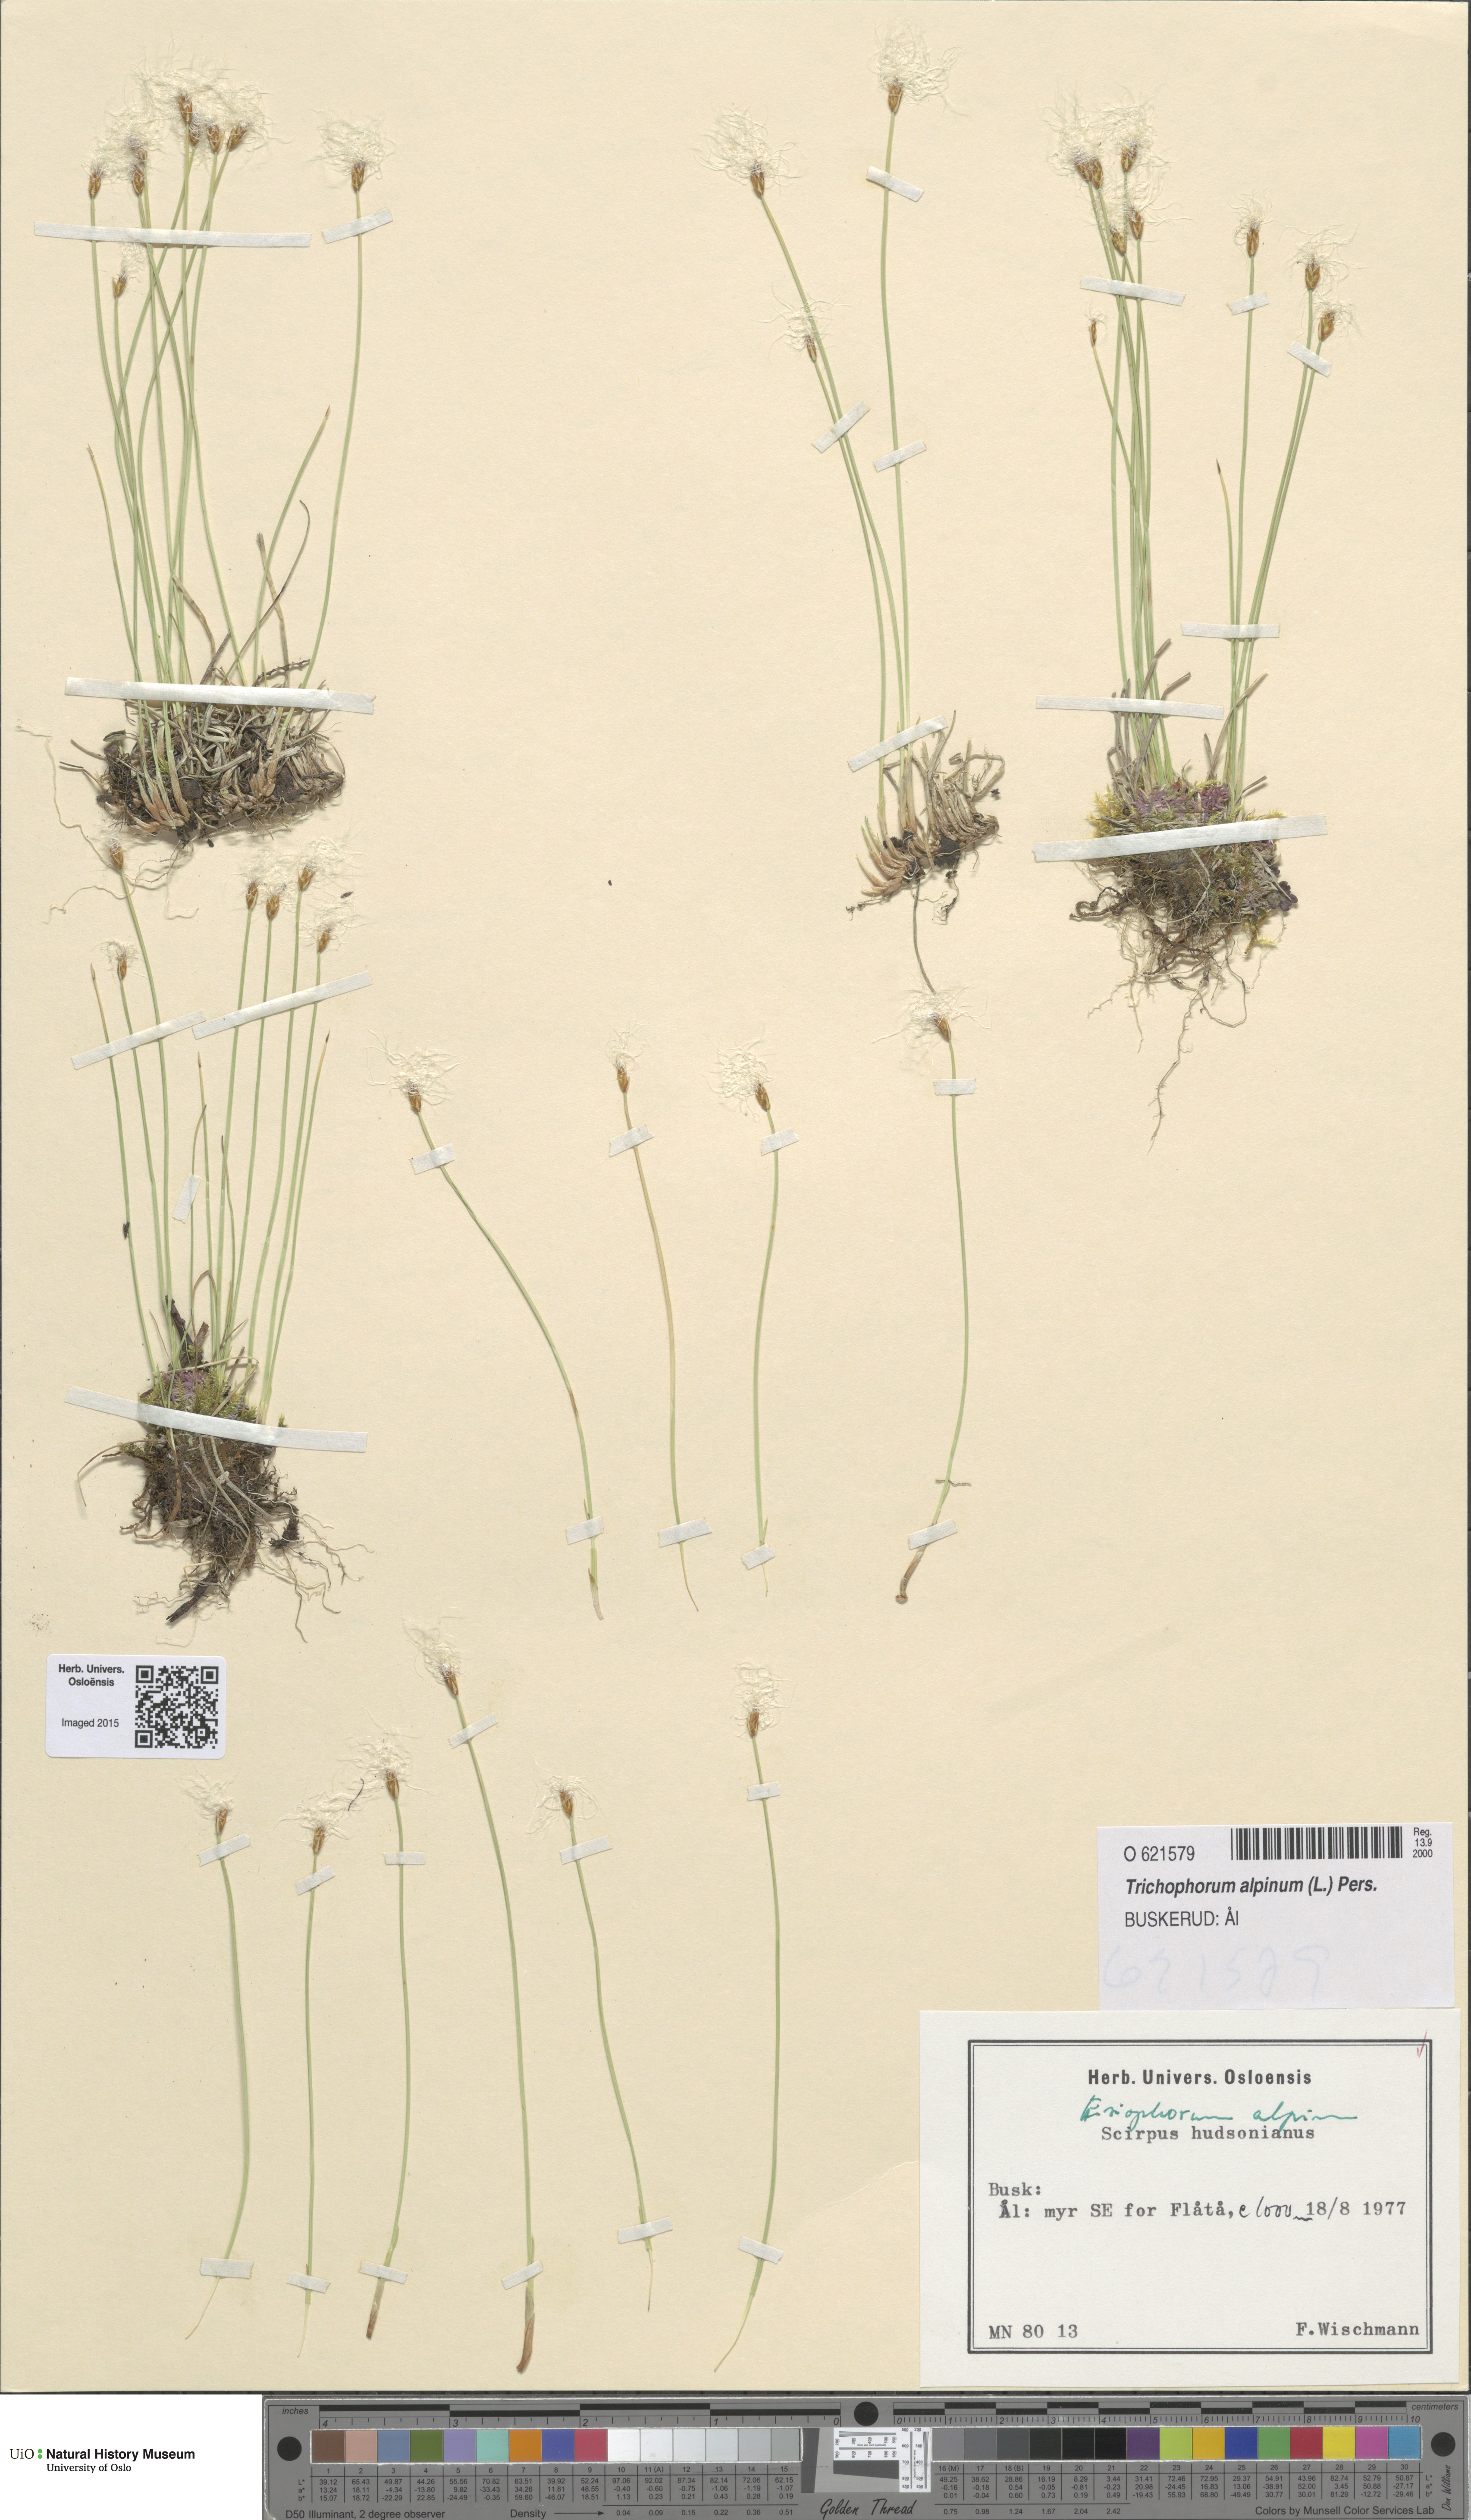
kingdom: Plantae
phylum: Tracheophyta
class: Liliopsida
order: Poales
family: Cyperaceae
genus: Trichophorum
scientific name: Trichophorum alpinum
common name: Alpine bulrush
